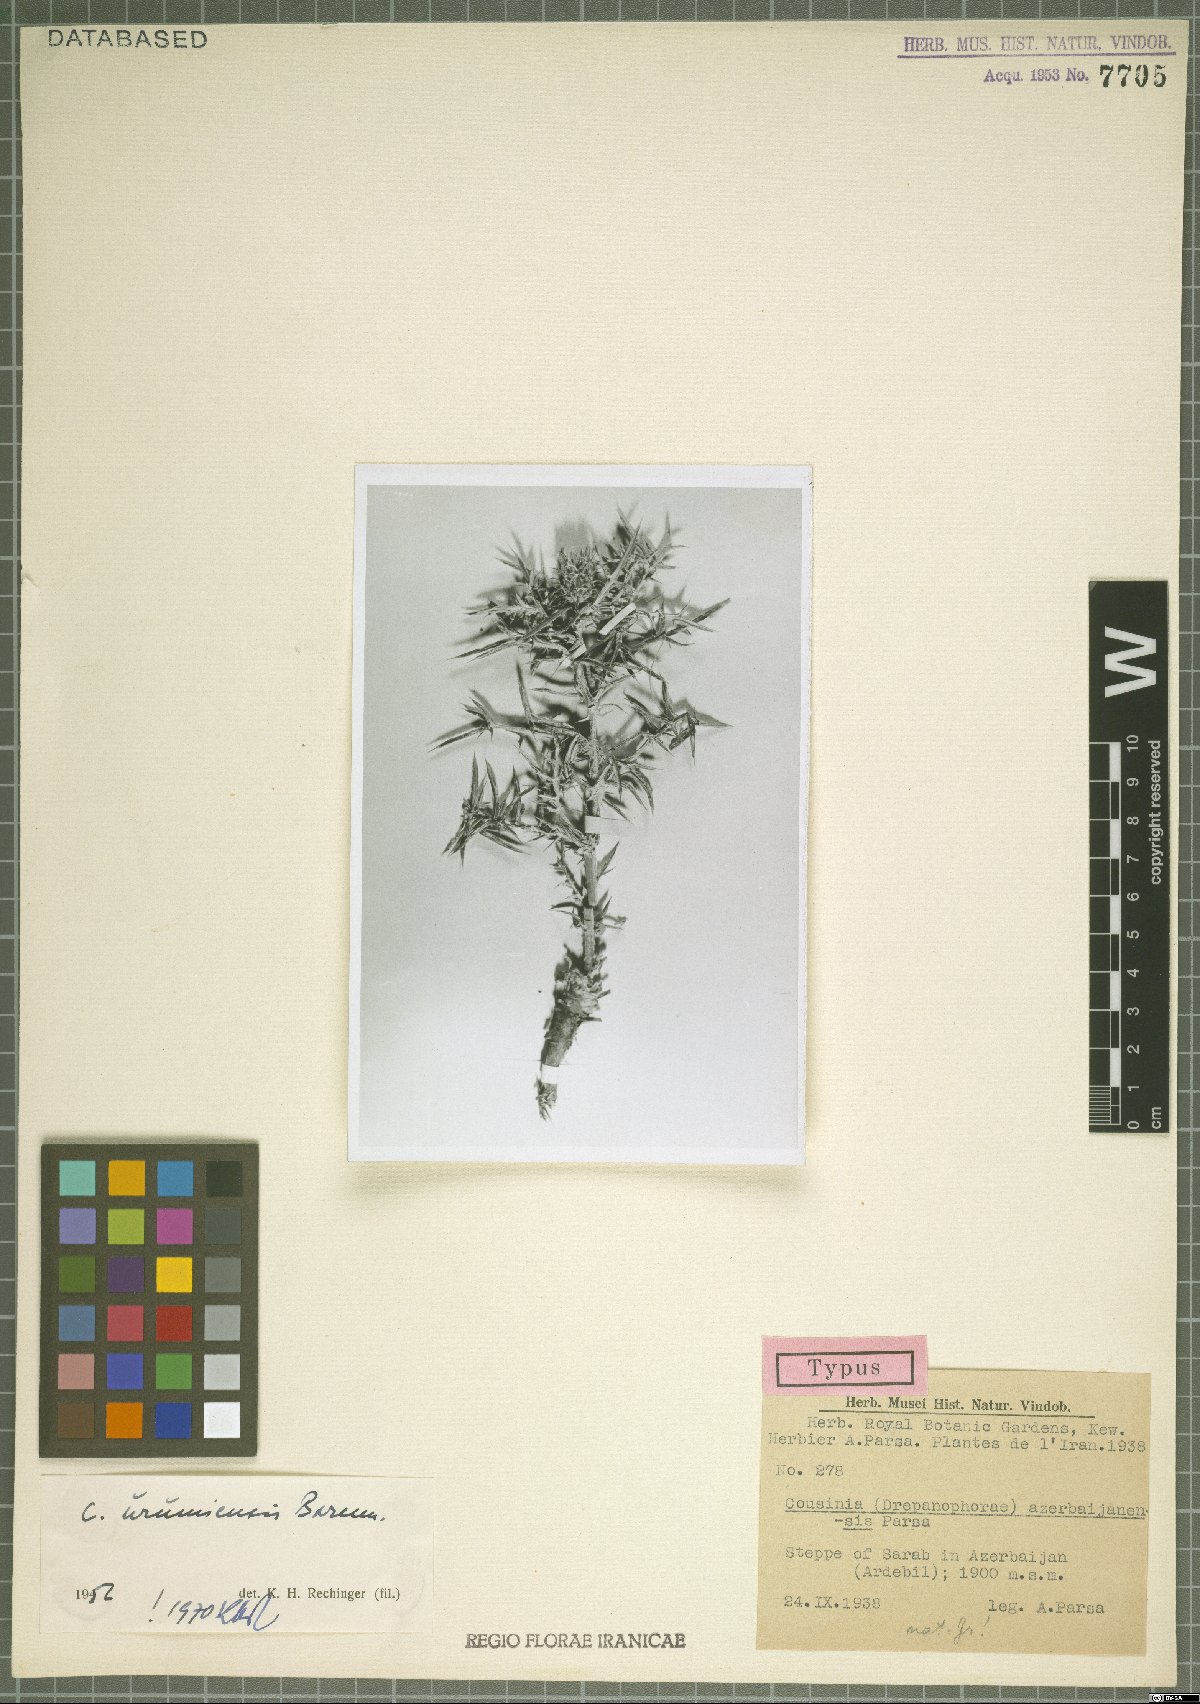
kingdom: Plantae
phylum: Tracheophyta
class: Magnoliopsida
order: Asterales
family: Asteraceae
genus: Cousinia
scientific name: Cousinia urumiensis
